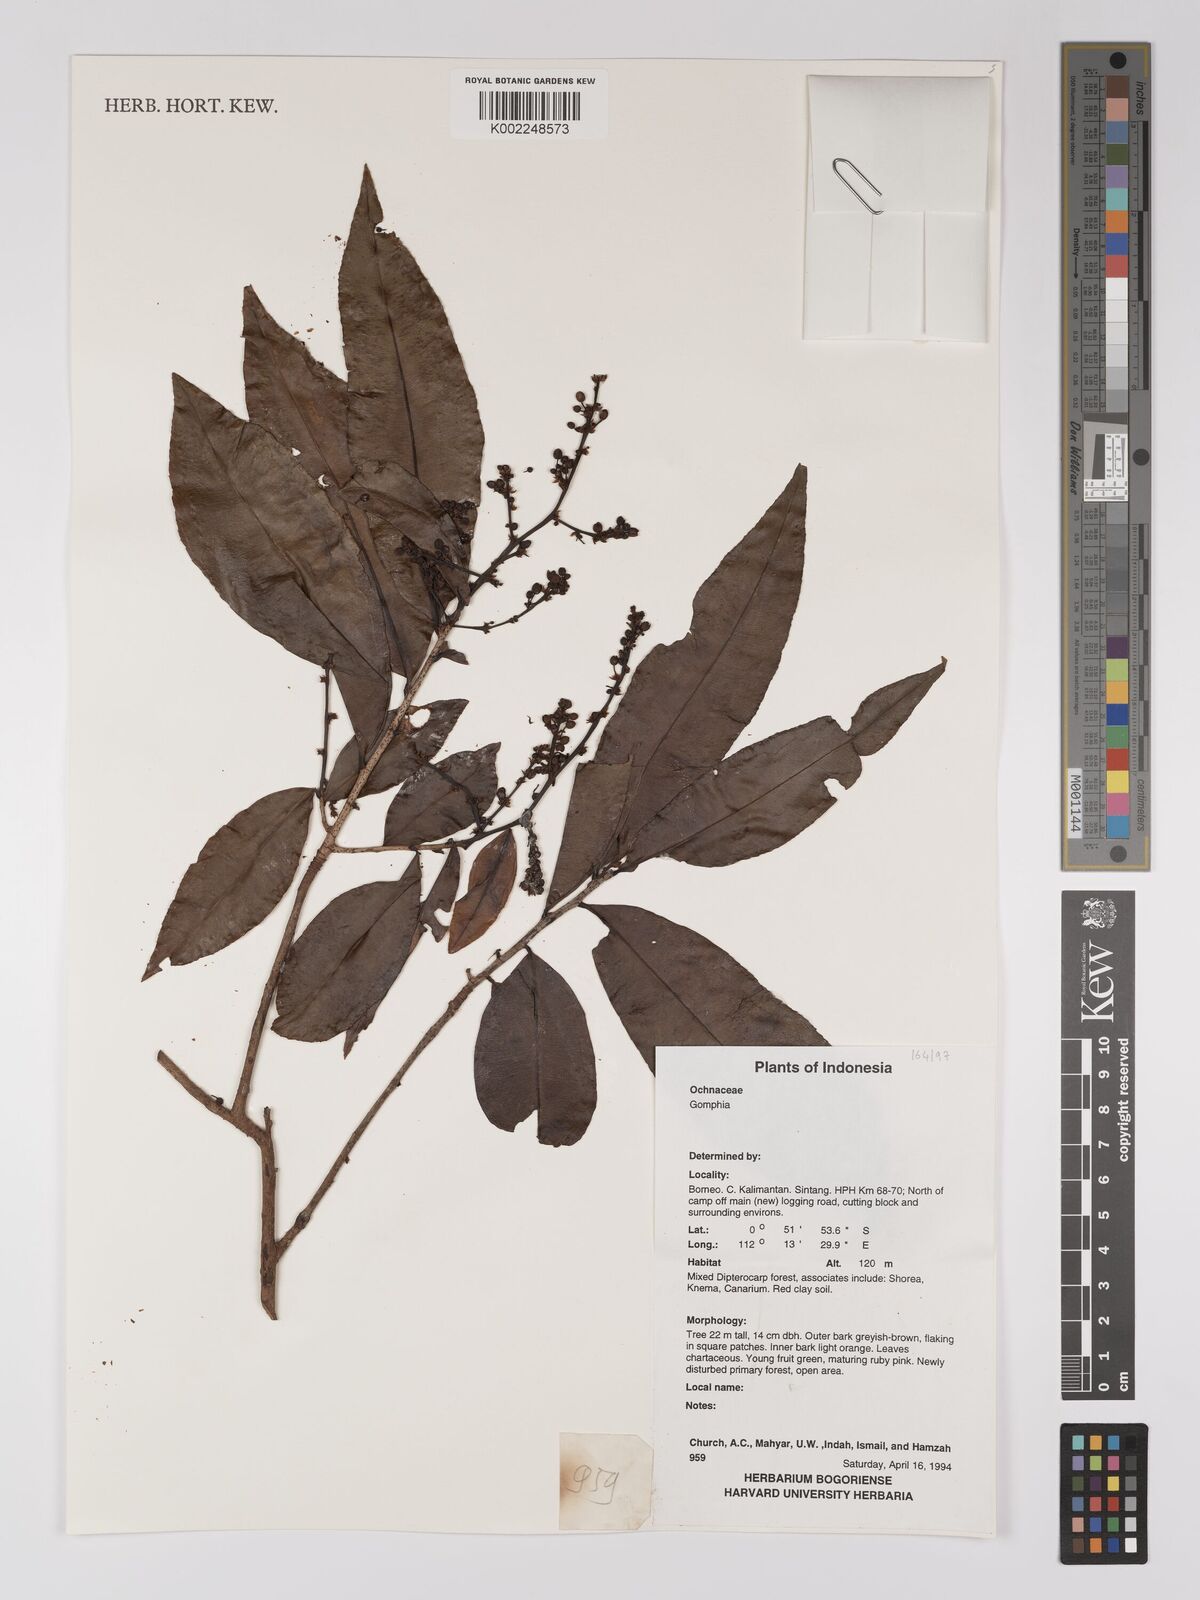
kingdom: Plantae
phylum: Tracheophyta
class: Magnoliopsida
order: Malpighiales
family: Ochnaceae
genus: Campylospermum
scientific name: Campylospermum
